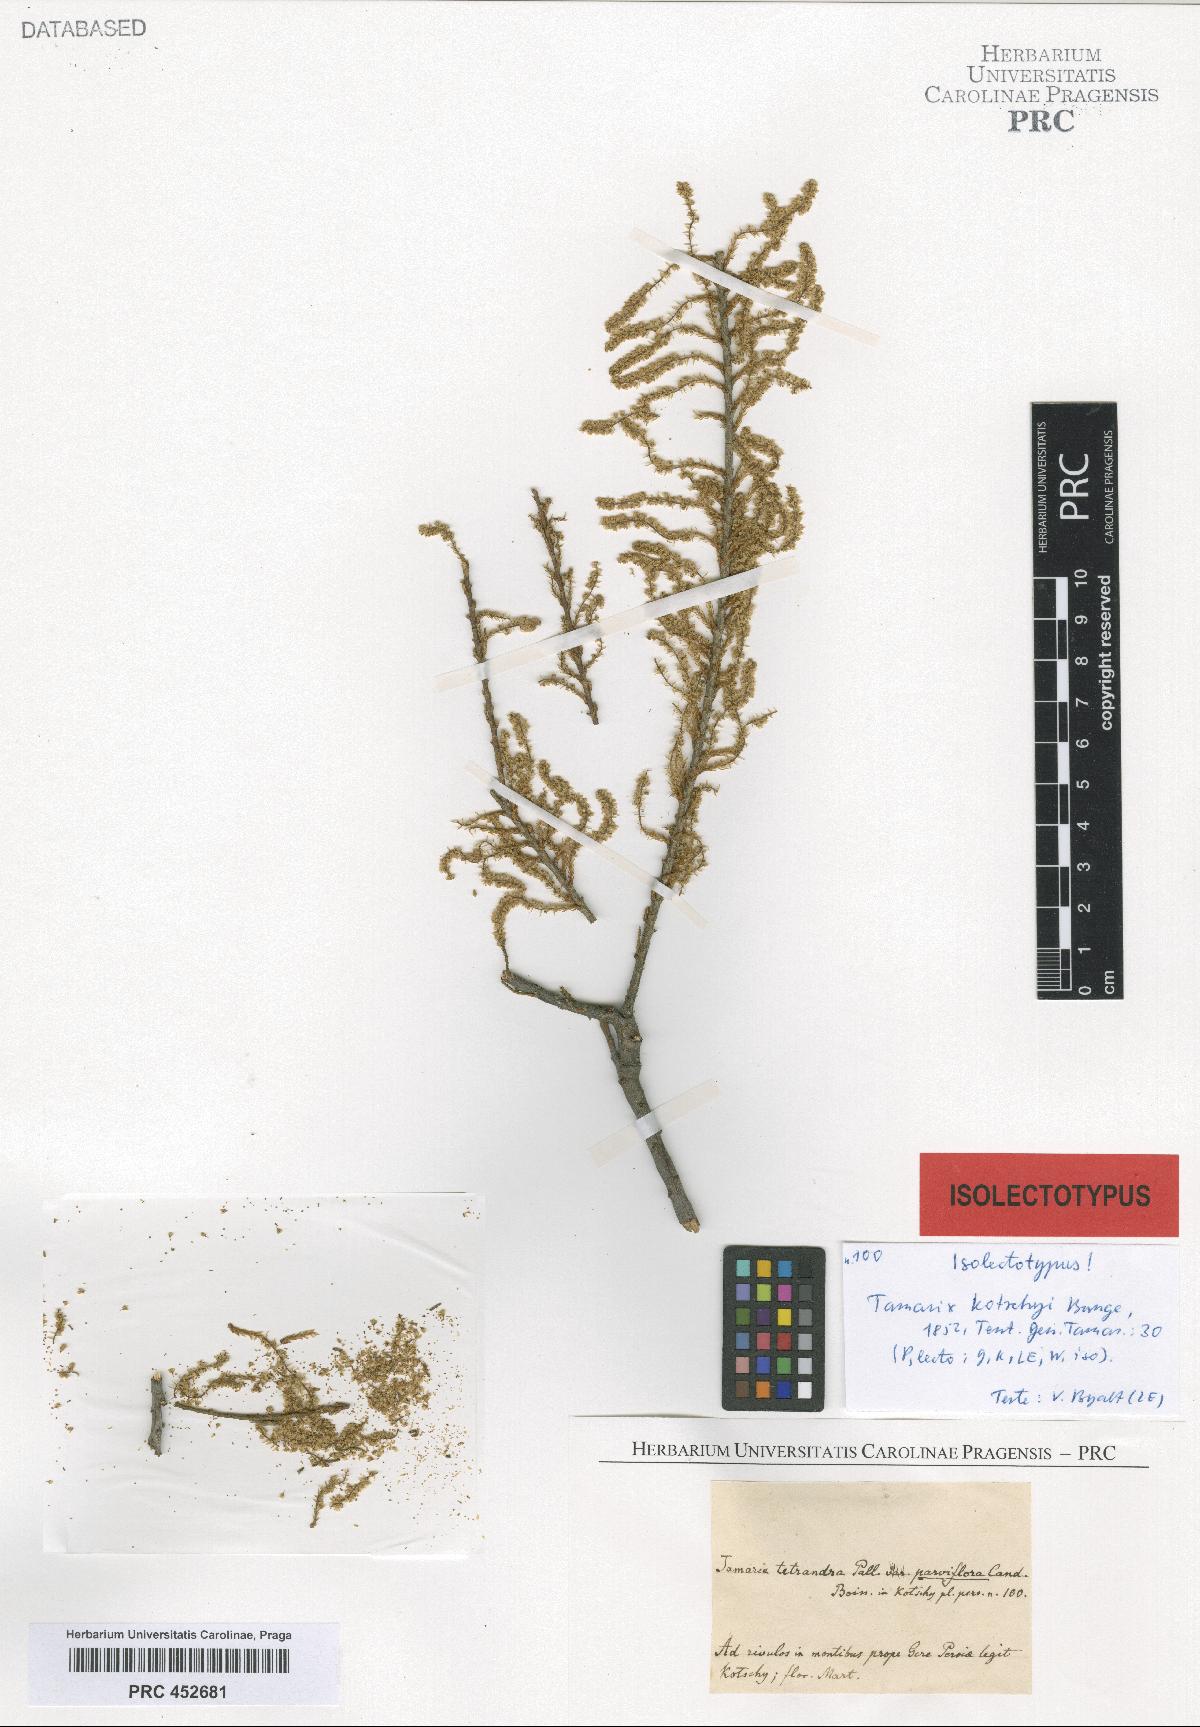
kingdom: Plantae
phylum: Tracheophyta
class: Magnoliopsida
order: Caryophyllales
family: Tamaricaceae
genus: Tamarix
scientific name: Tamarix kotschyi
